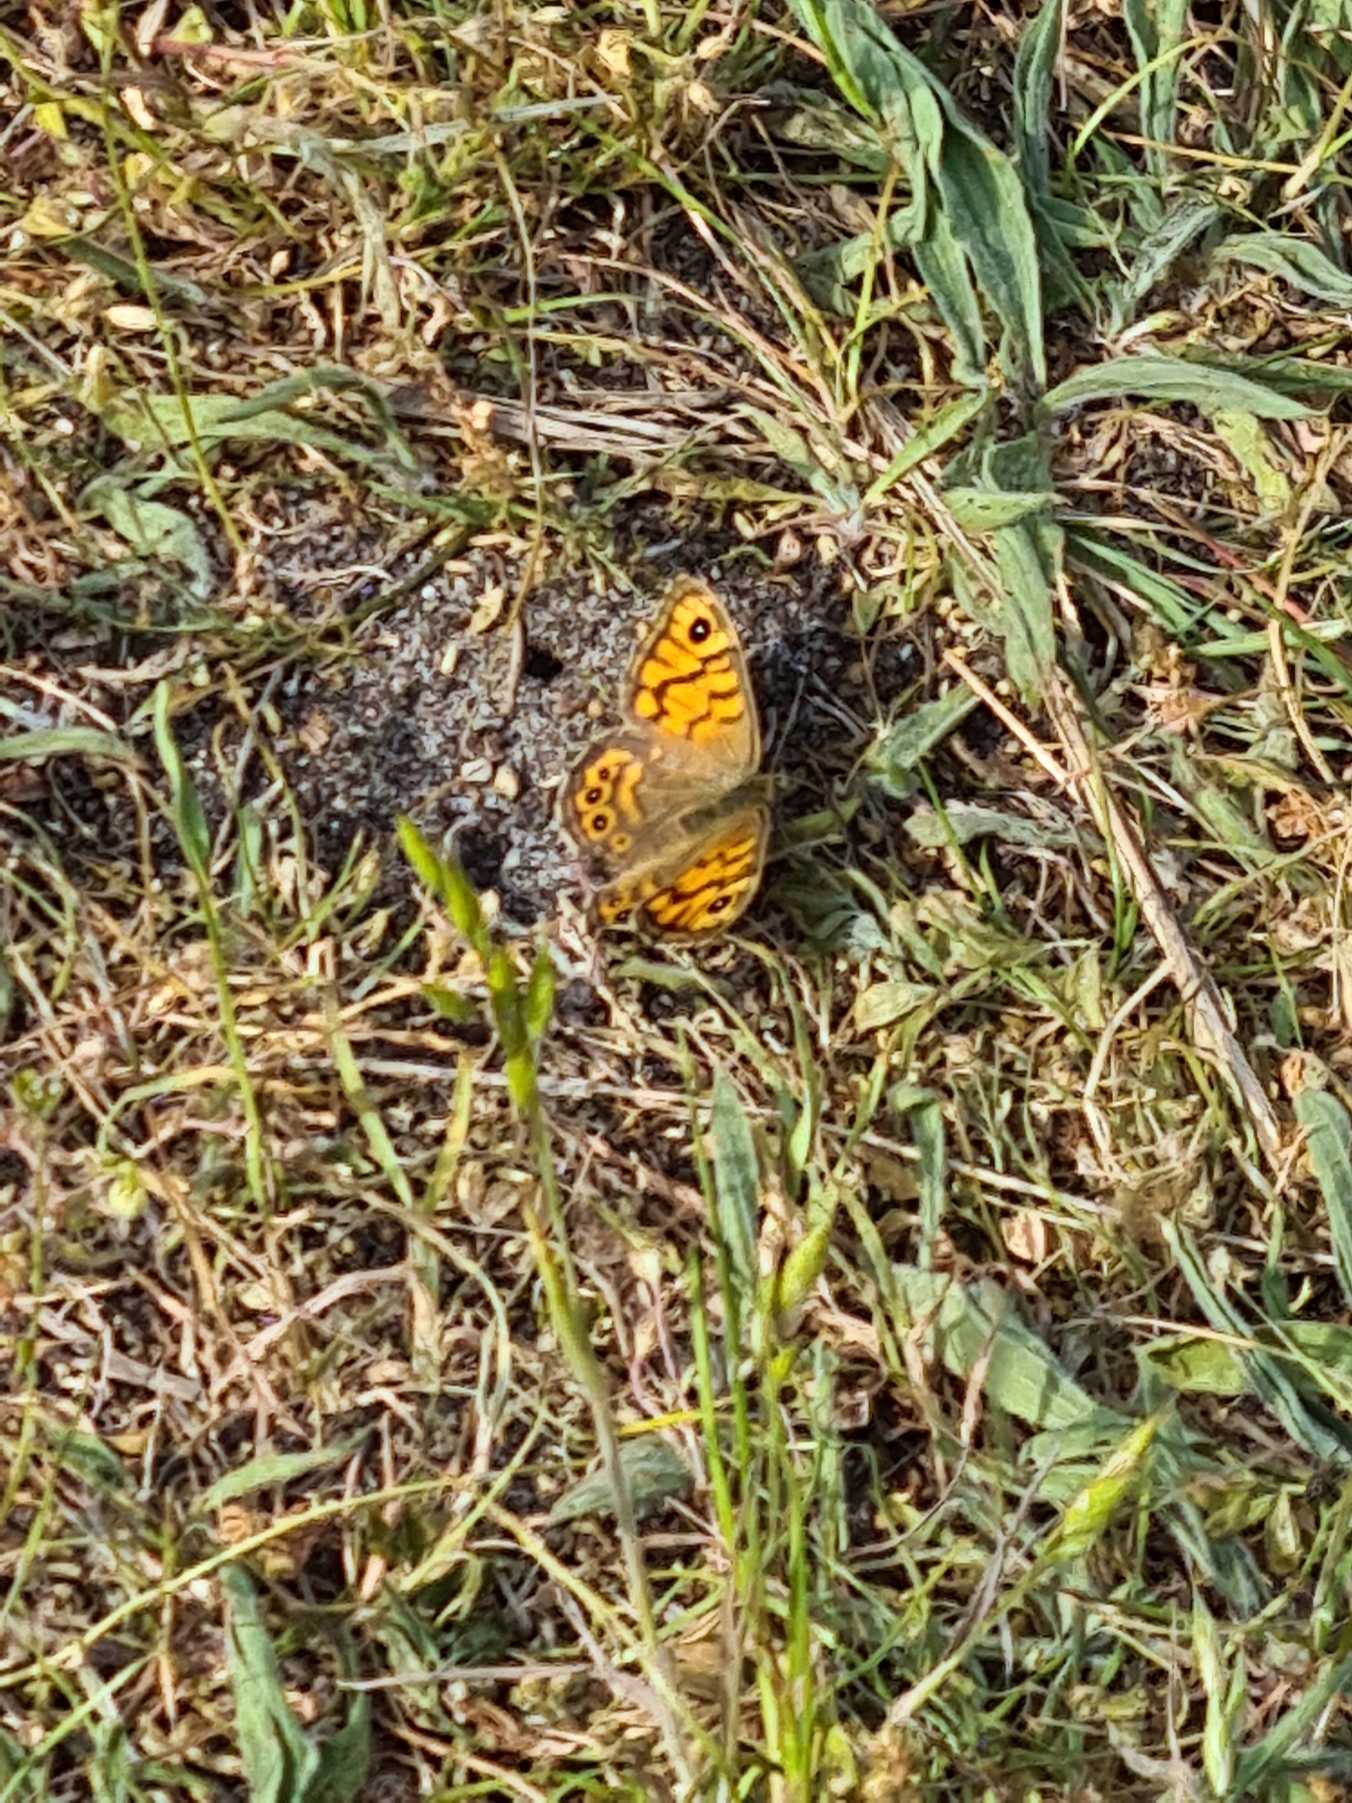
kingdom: Animalia
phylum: Arthropoda
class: Insecta
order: Lepidoptera
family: Nymphalidae
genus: Pararge
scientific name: Pararge Lasiommata megera
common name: Vejrandøje
